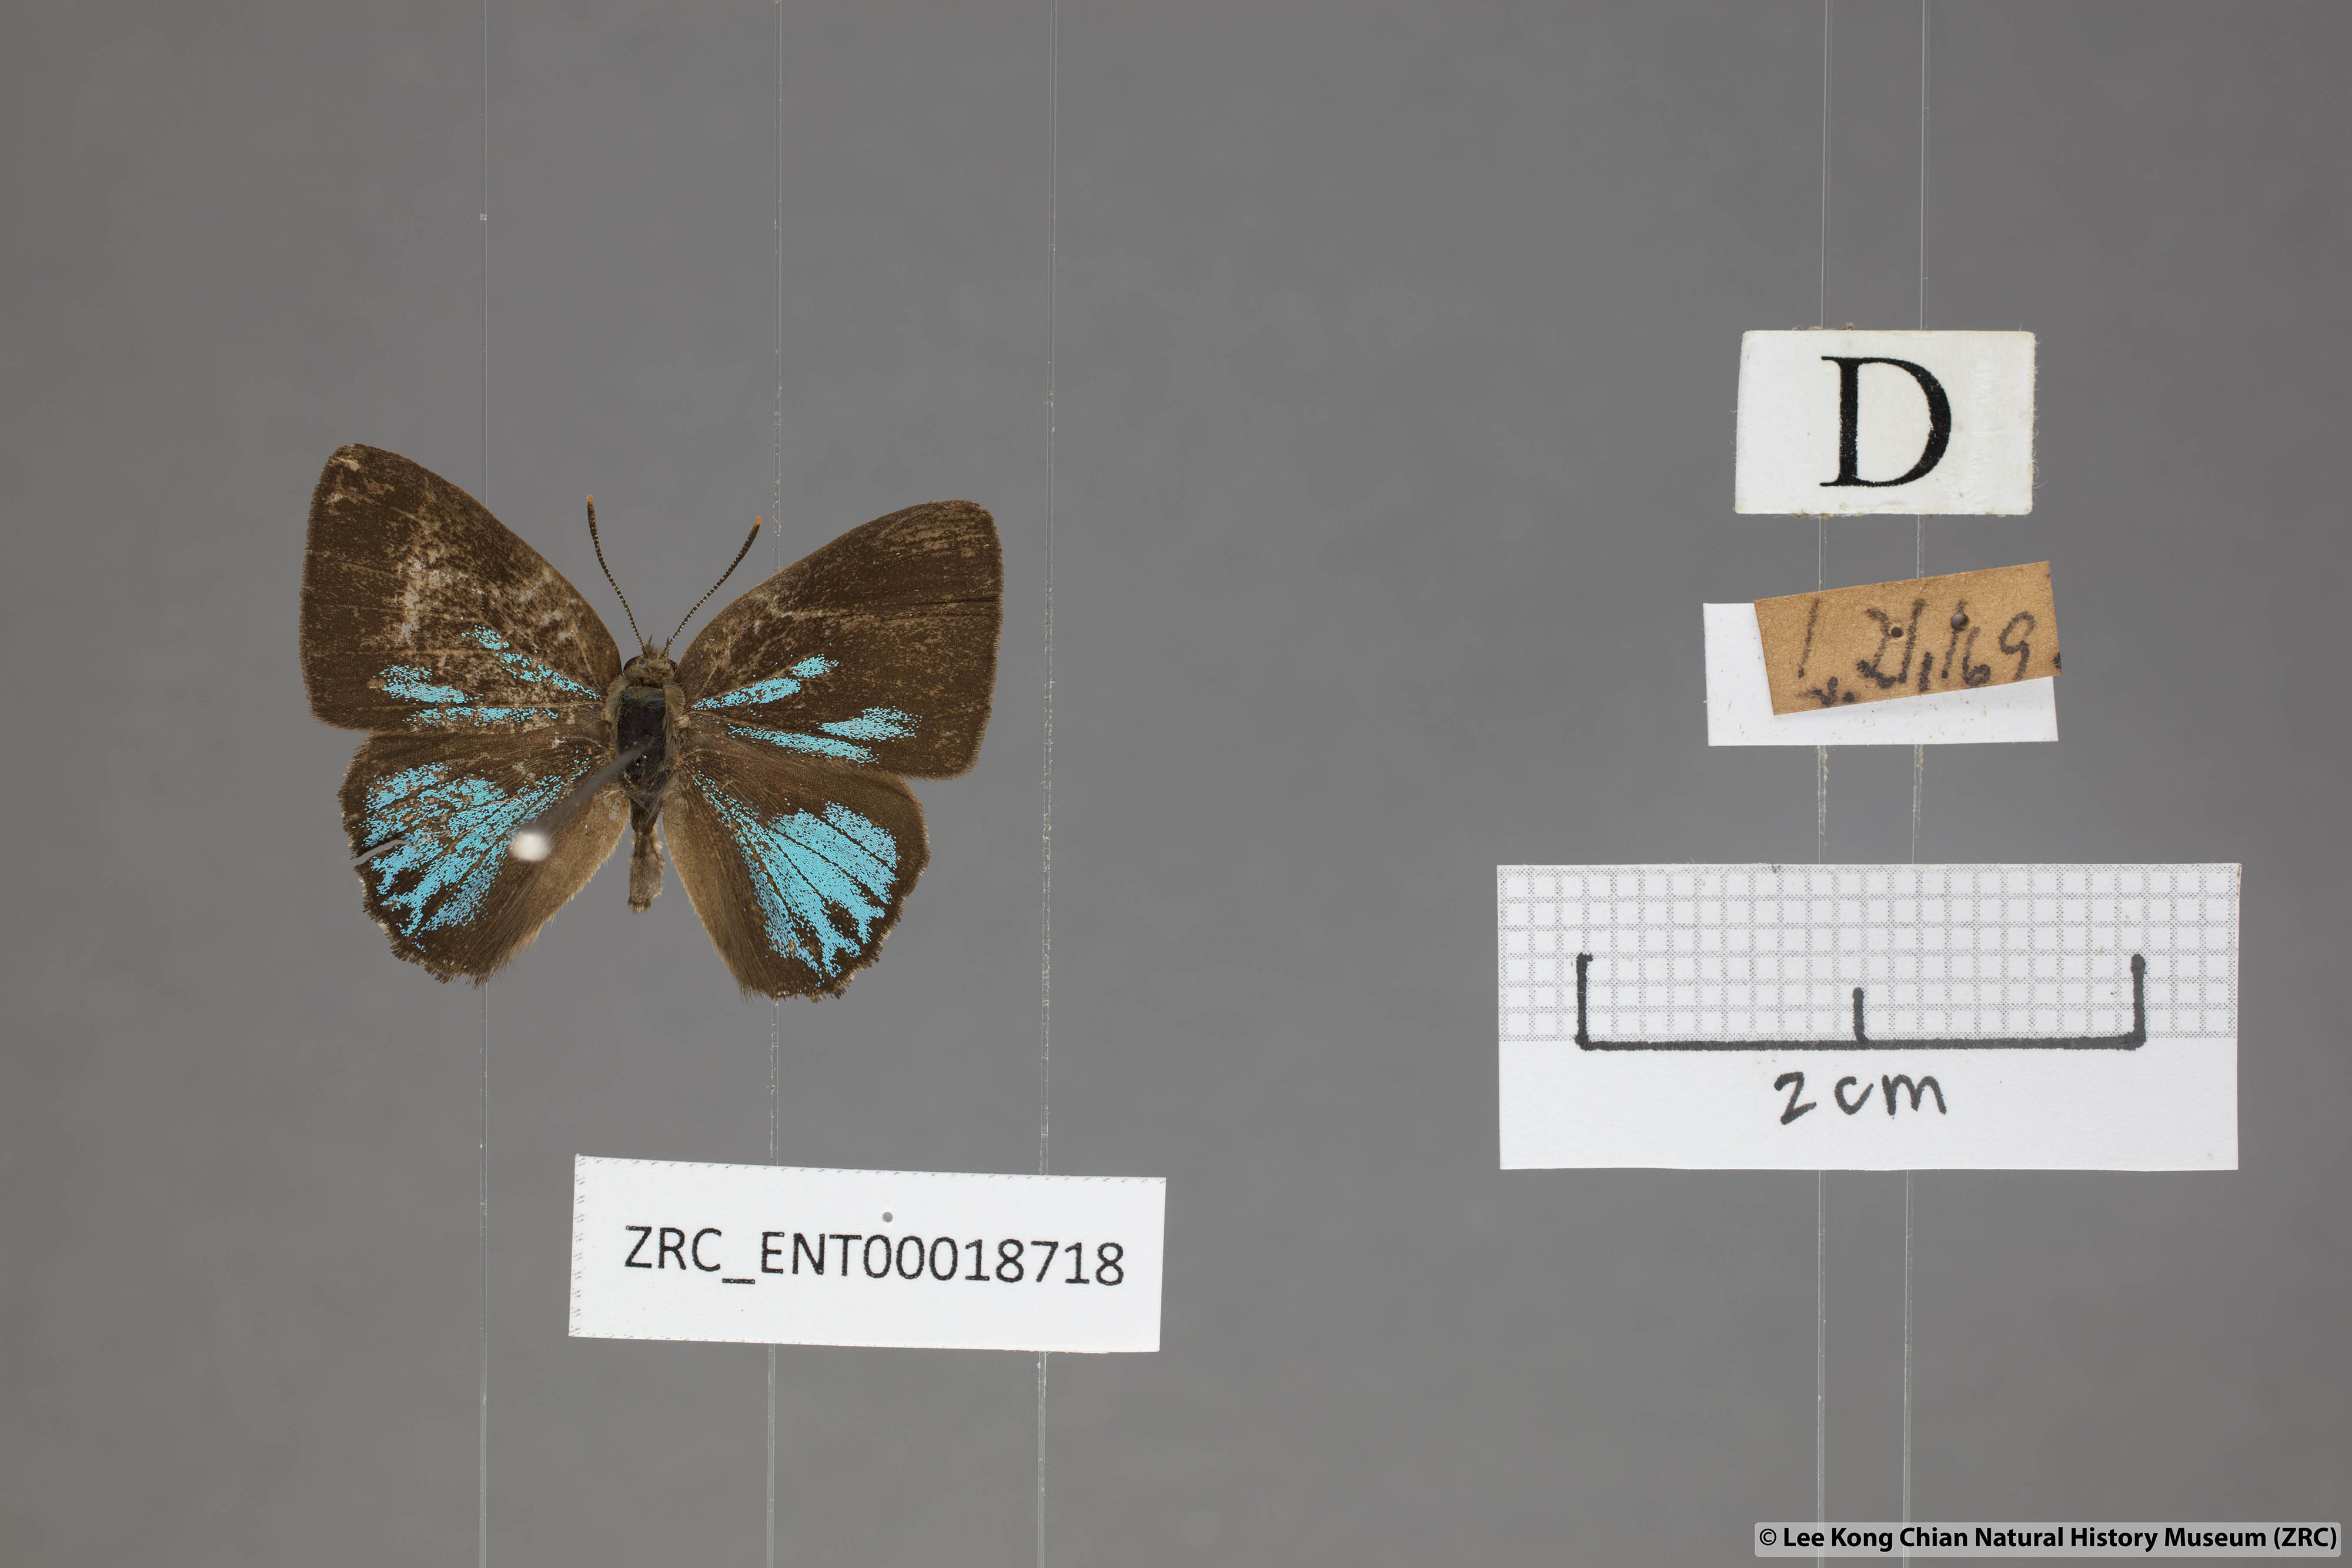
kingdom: Animalia
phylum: Arthropoda
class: Insecta
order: Lepidoptera
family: Lycaenidae
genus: Deramas
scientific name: Deramas livena
